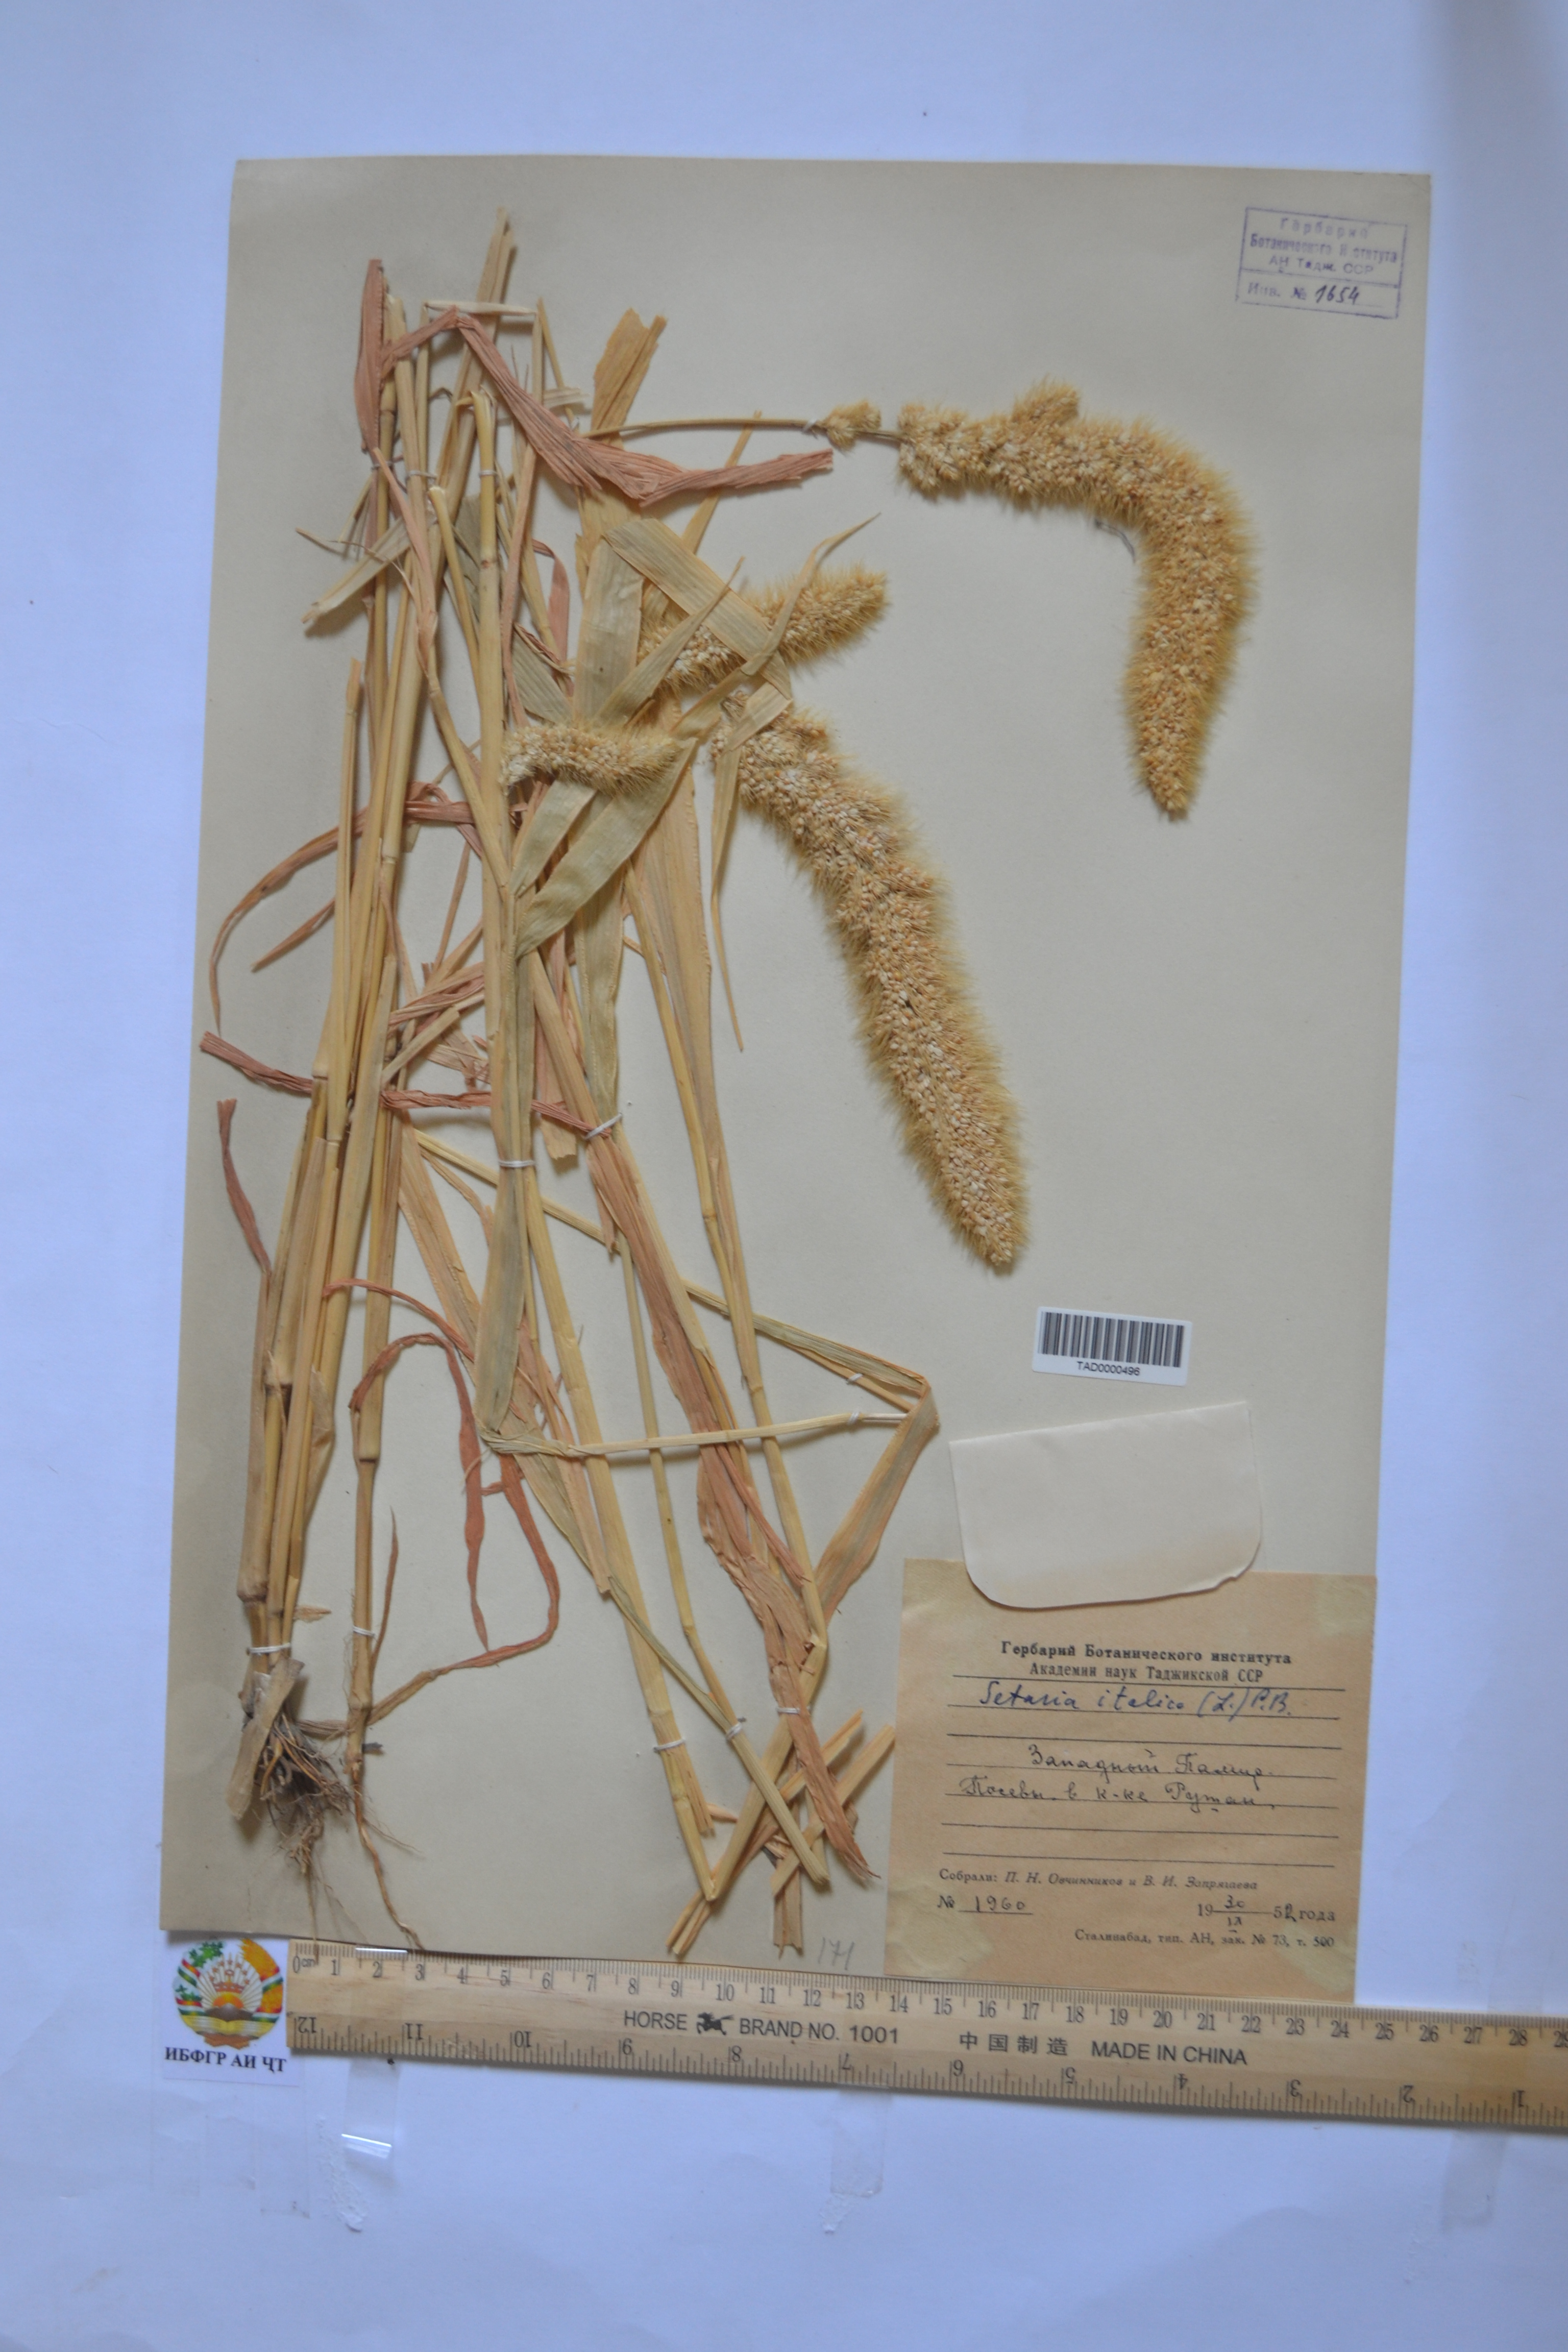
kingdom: Plantae
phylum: Tracheophyta
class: Liliopsida
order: Poales
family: Poaceae
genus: Cenchrus
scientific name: Cenchrus americanus
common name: Pearl millet
